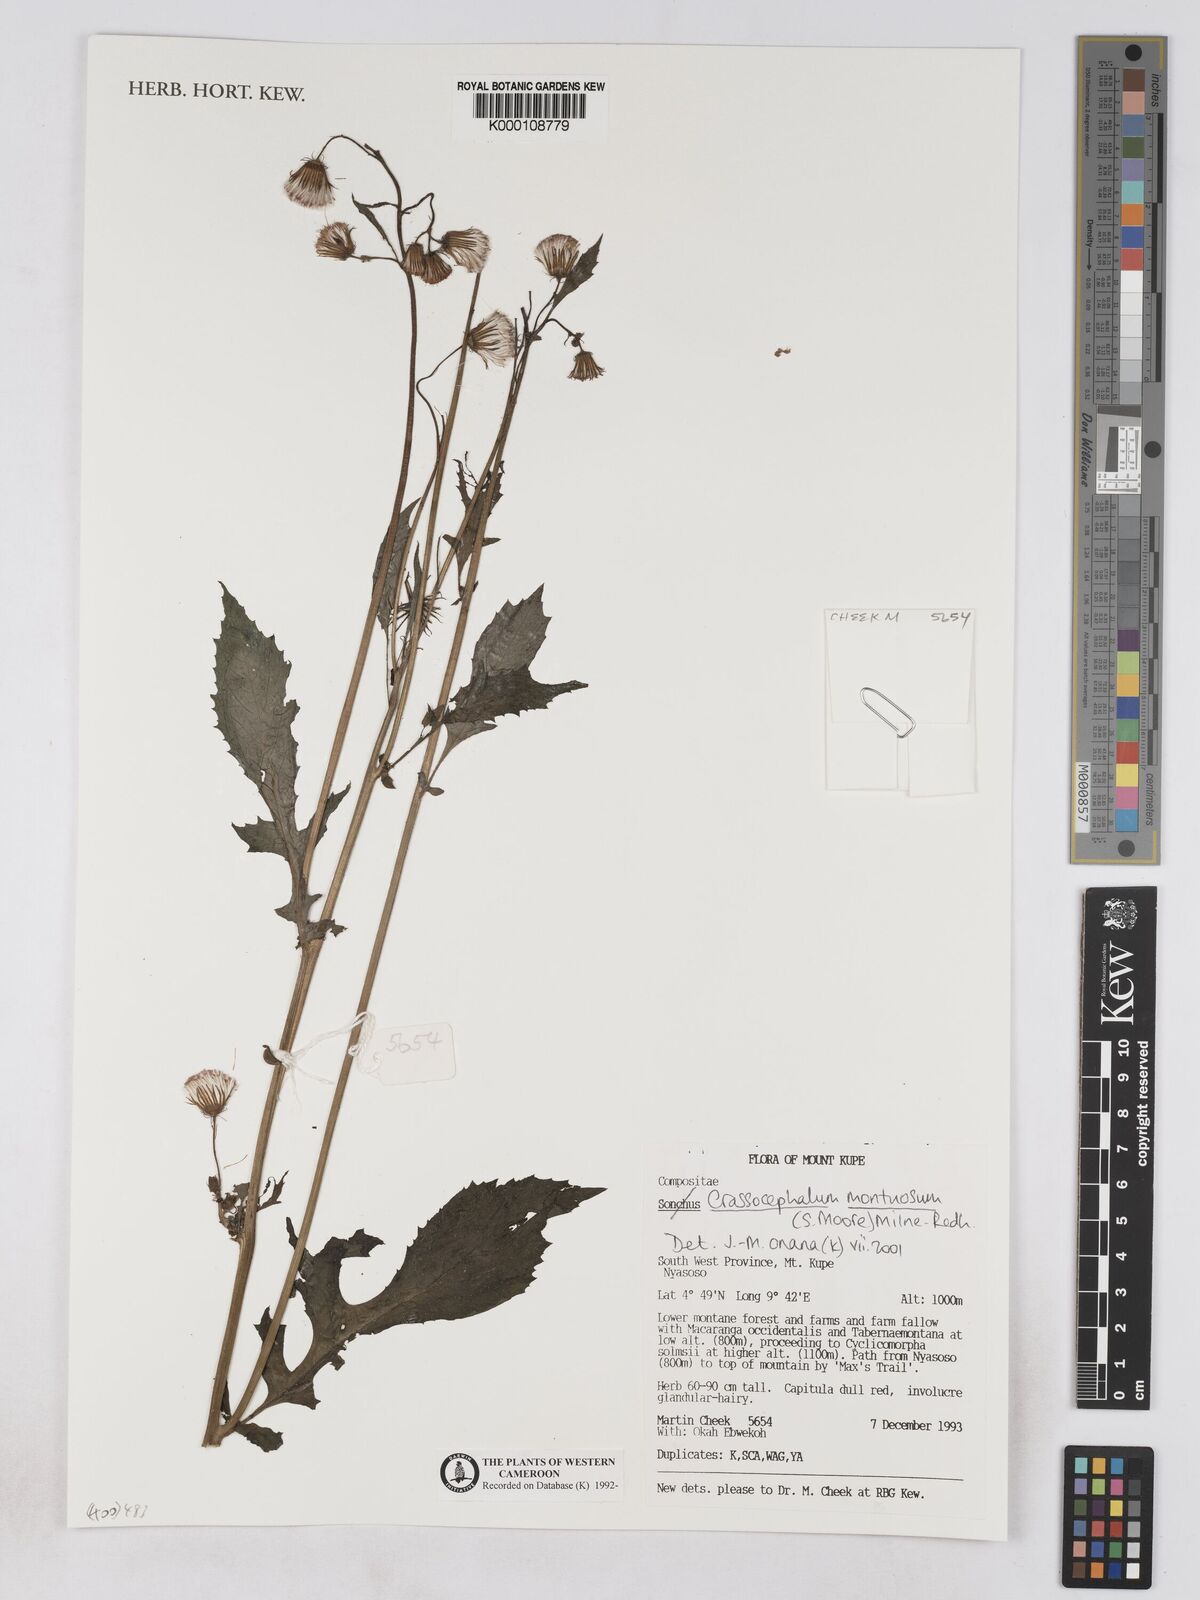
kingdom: Plantae
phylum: Tracheophyta
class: Magnoliopsida
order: Asterales
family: Asteraceae
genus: Crassocephalum
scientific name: Crassocephalum montuosum
